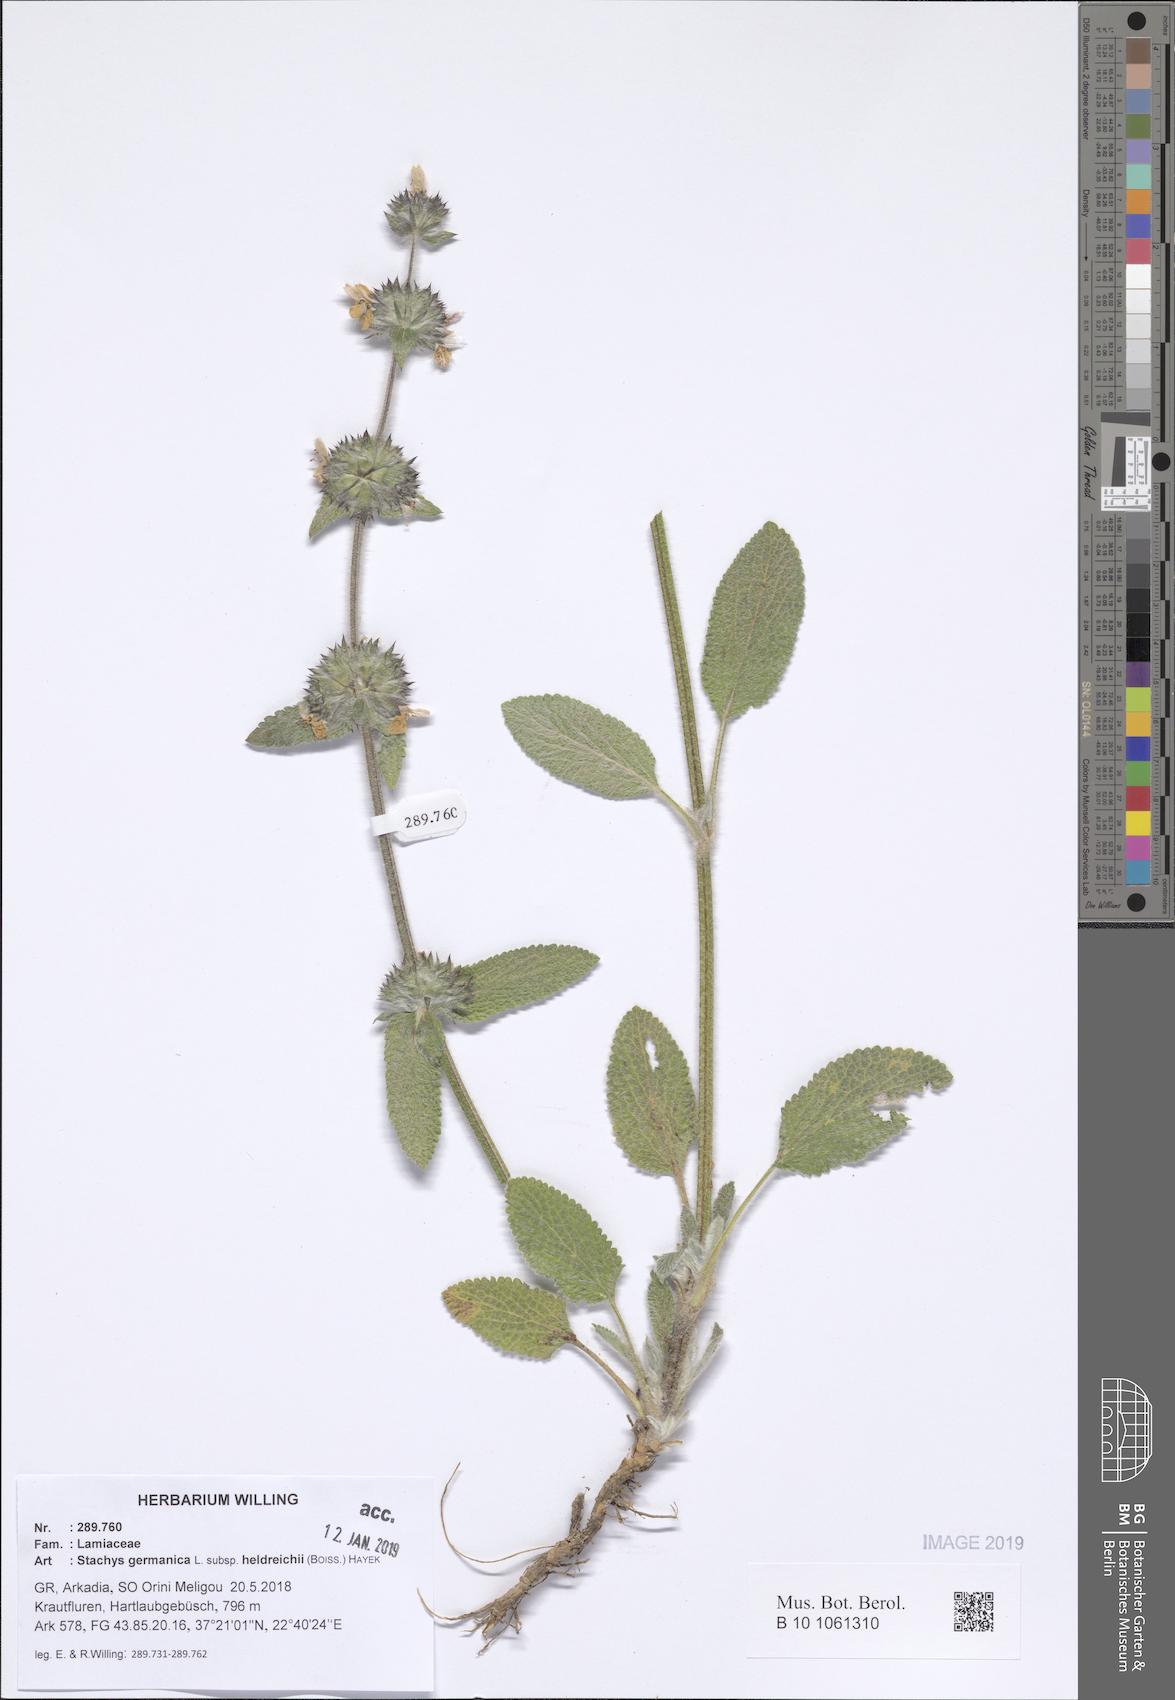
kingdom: Plantae
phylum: Tracheophyta
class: Magnoliopsida
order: Lamiales
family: Lamiaceae
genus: Stachys
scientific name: Stachys germanica
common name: Downy woundwort
